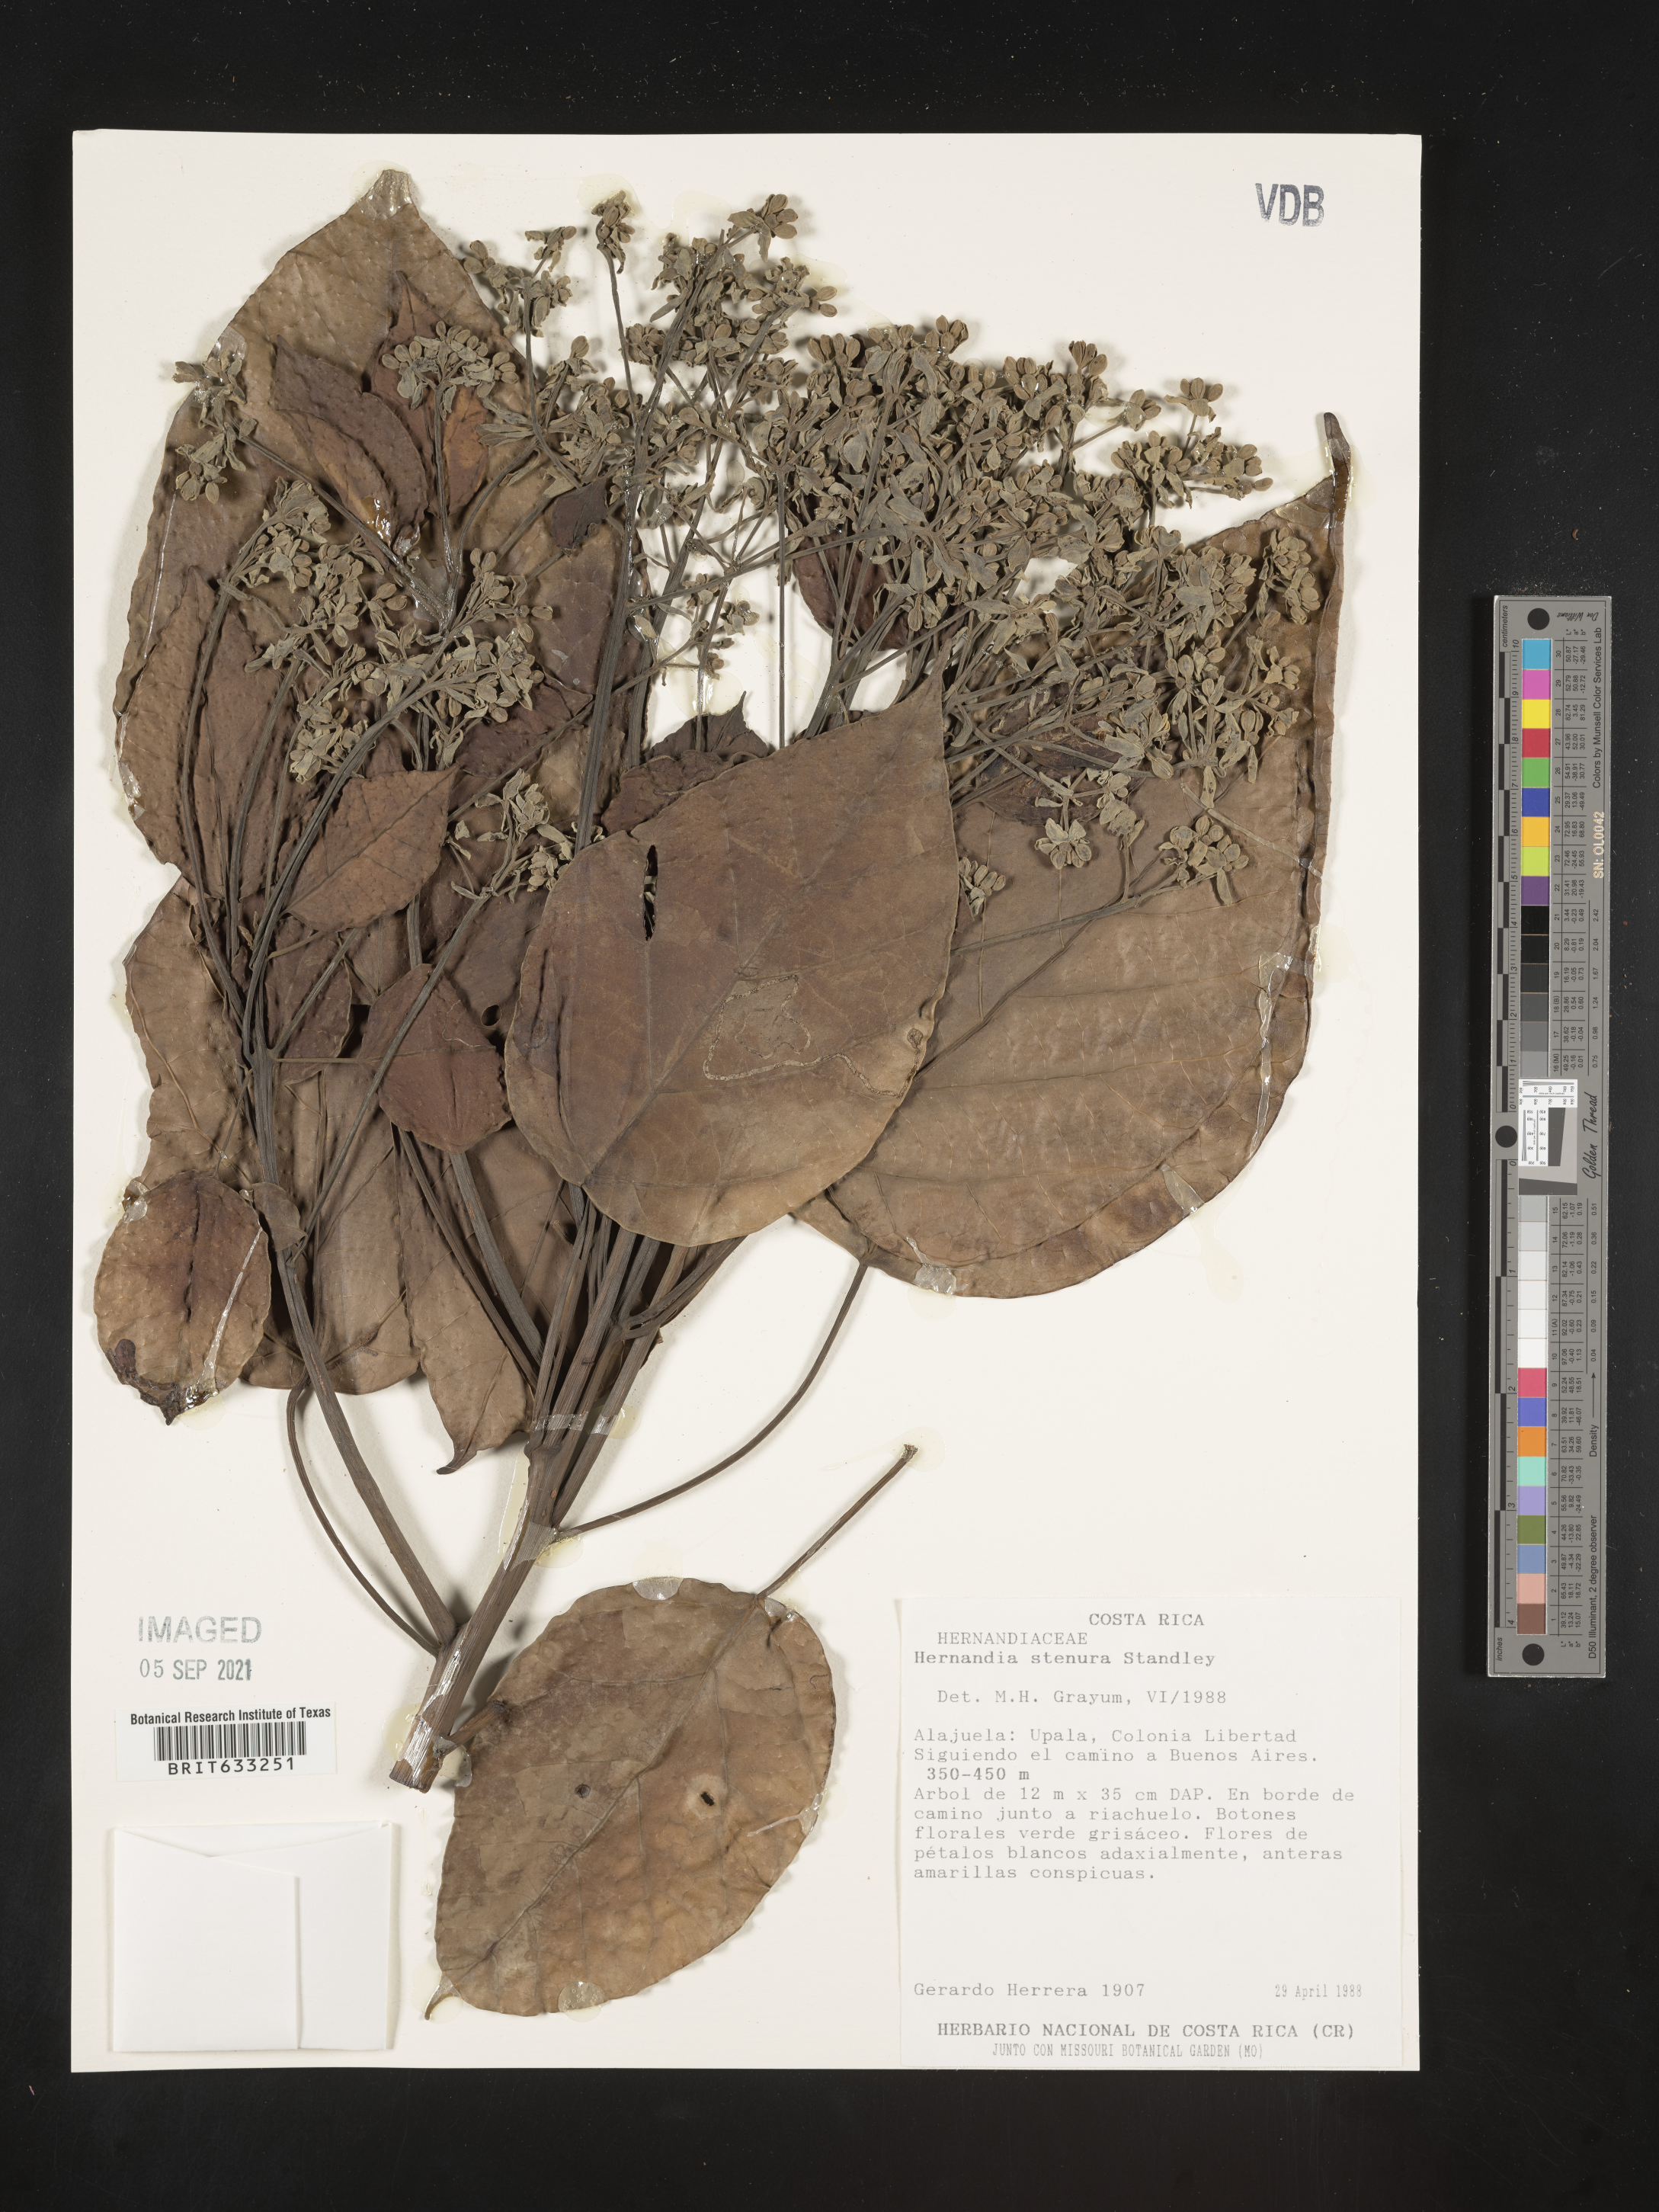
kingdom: Plantae
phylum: Tracheophyta
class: Magnoliopsida
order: Laurales
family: Hernandiaceae
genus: Hernandia
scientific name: Hernandia
